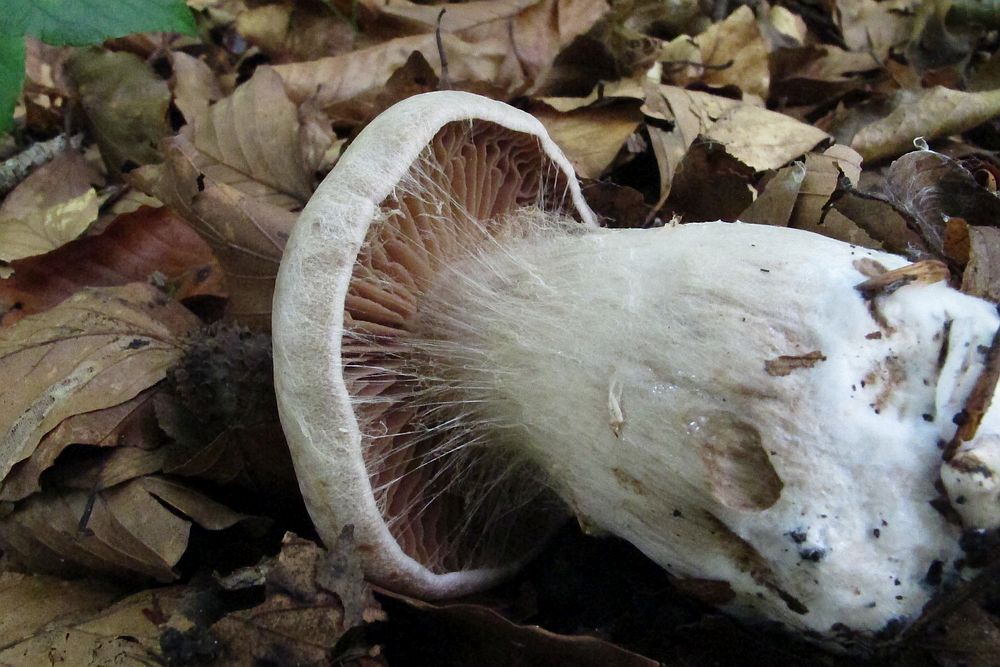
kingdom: Fungi
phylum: Basidiomycota
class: Agaricomycetes
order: Agaricales
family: Cortinariaceae
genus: Cortinarius
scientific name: Cortinarius sociatus
